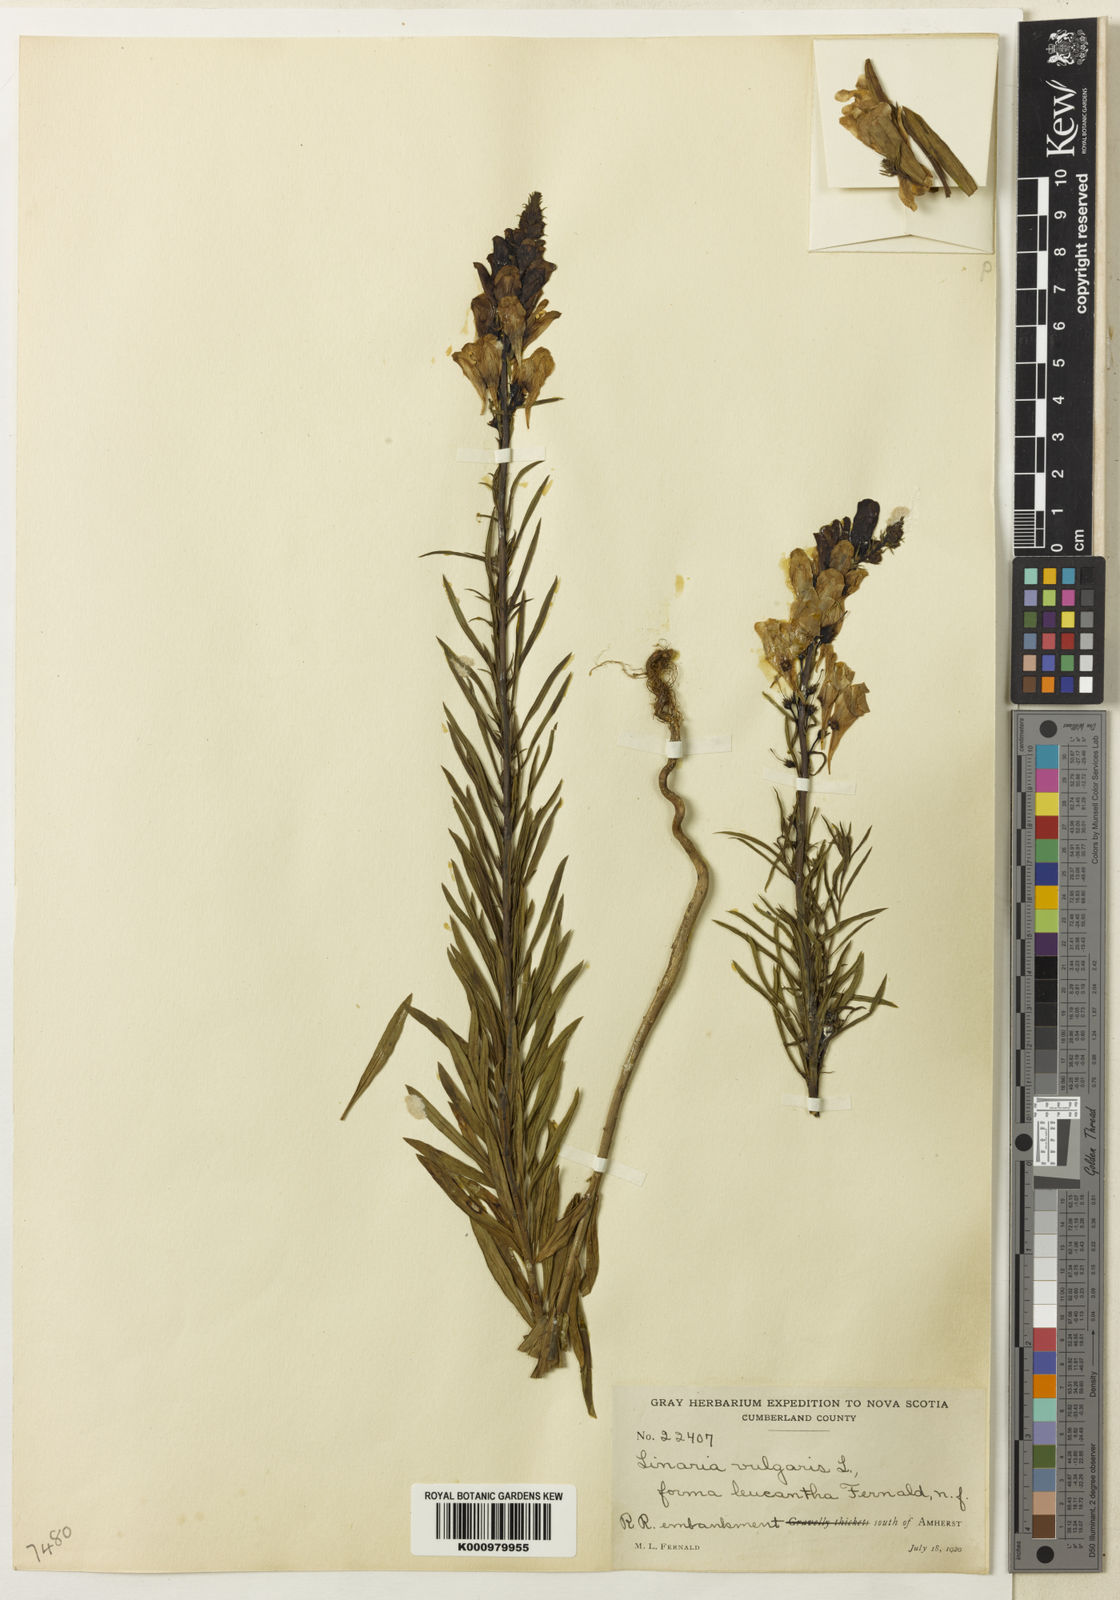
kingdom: Plantae
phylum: Tracheophyta
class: Magnoliopsida
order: Lamiales
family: Plantaginaceae
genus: Linaria
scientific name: Linaria vulgaris
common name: Butter and eggs
